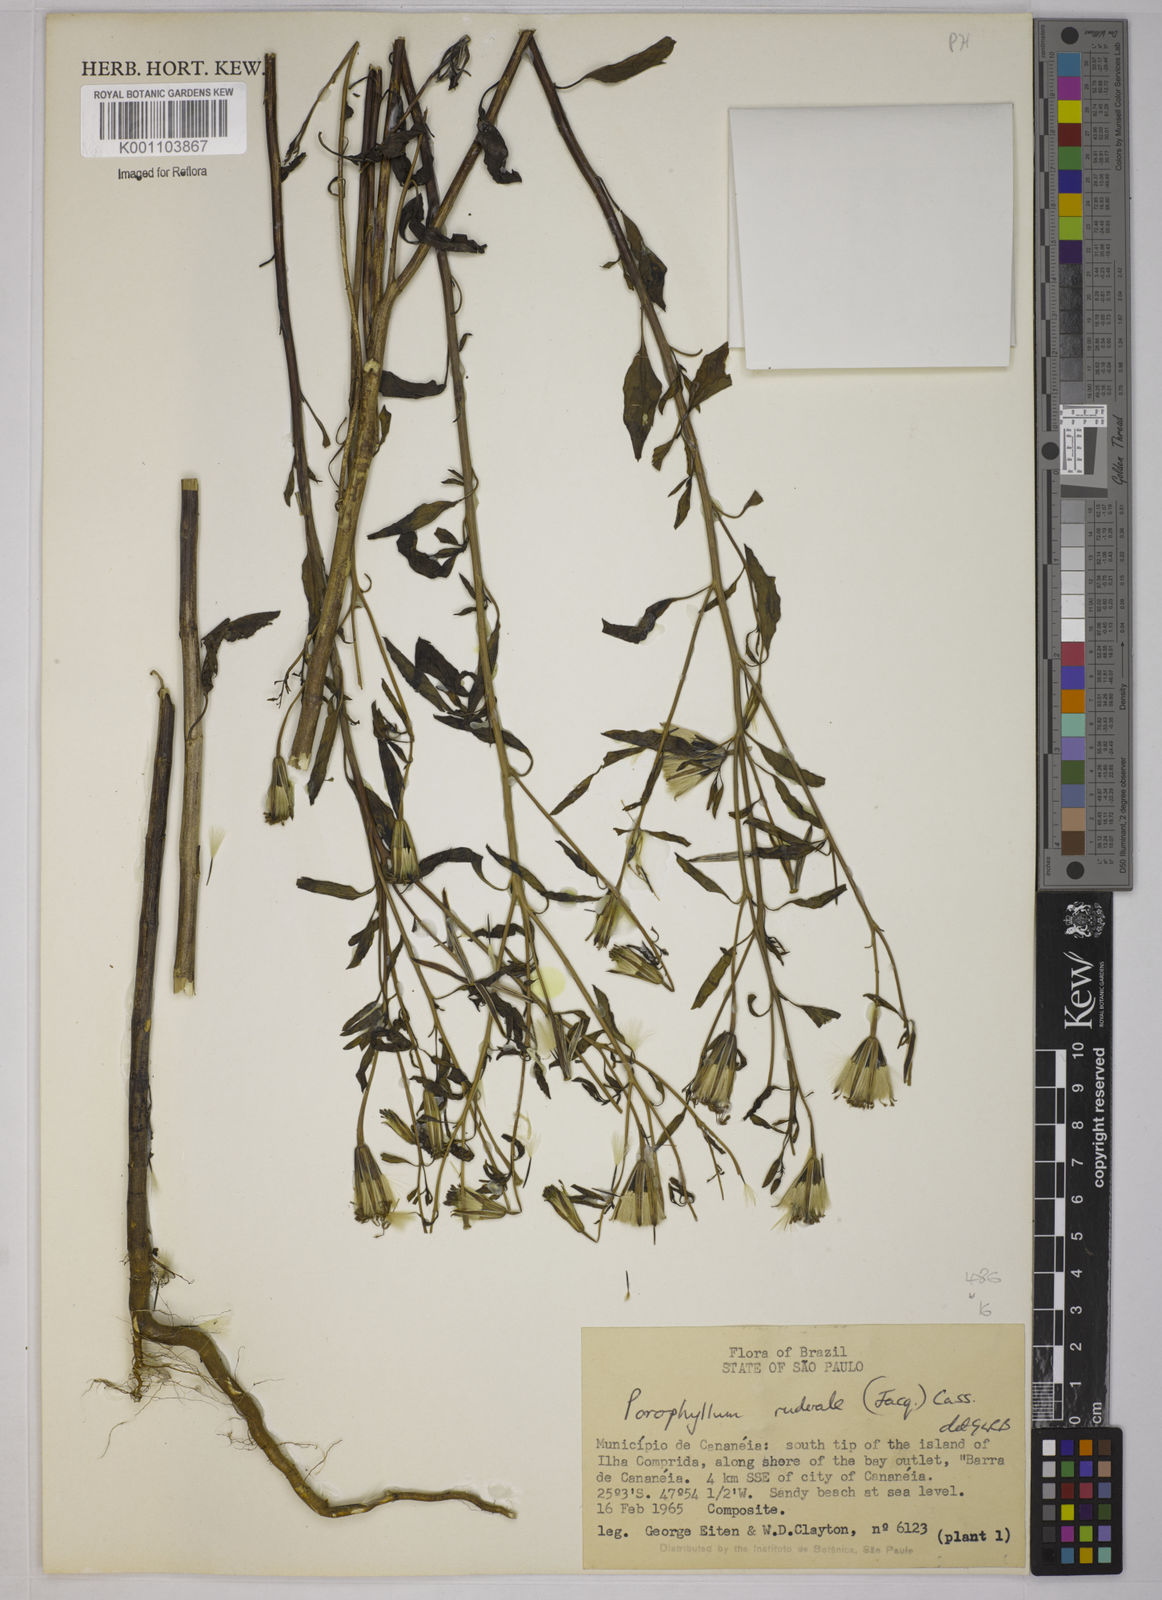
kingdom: Plantae
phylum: Tracheophyta
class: Magnoliopsida
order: Asterales
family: Asteraceae
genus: Porophyllum
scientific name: Porophyllum ruderale
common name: Yerba porosa
